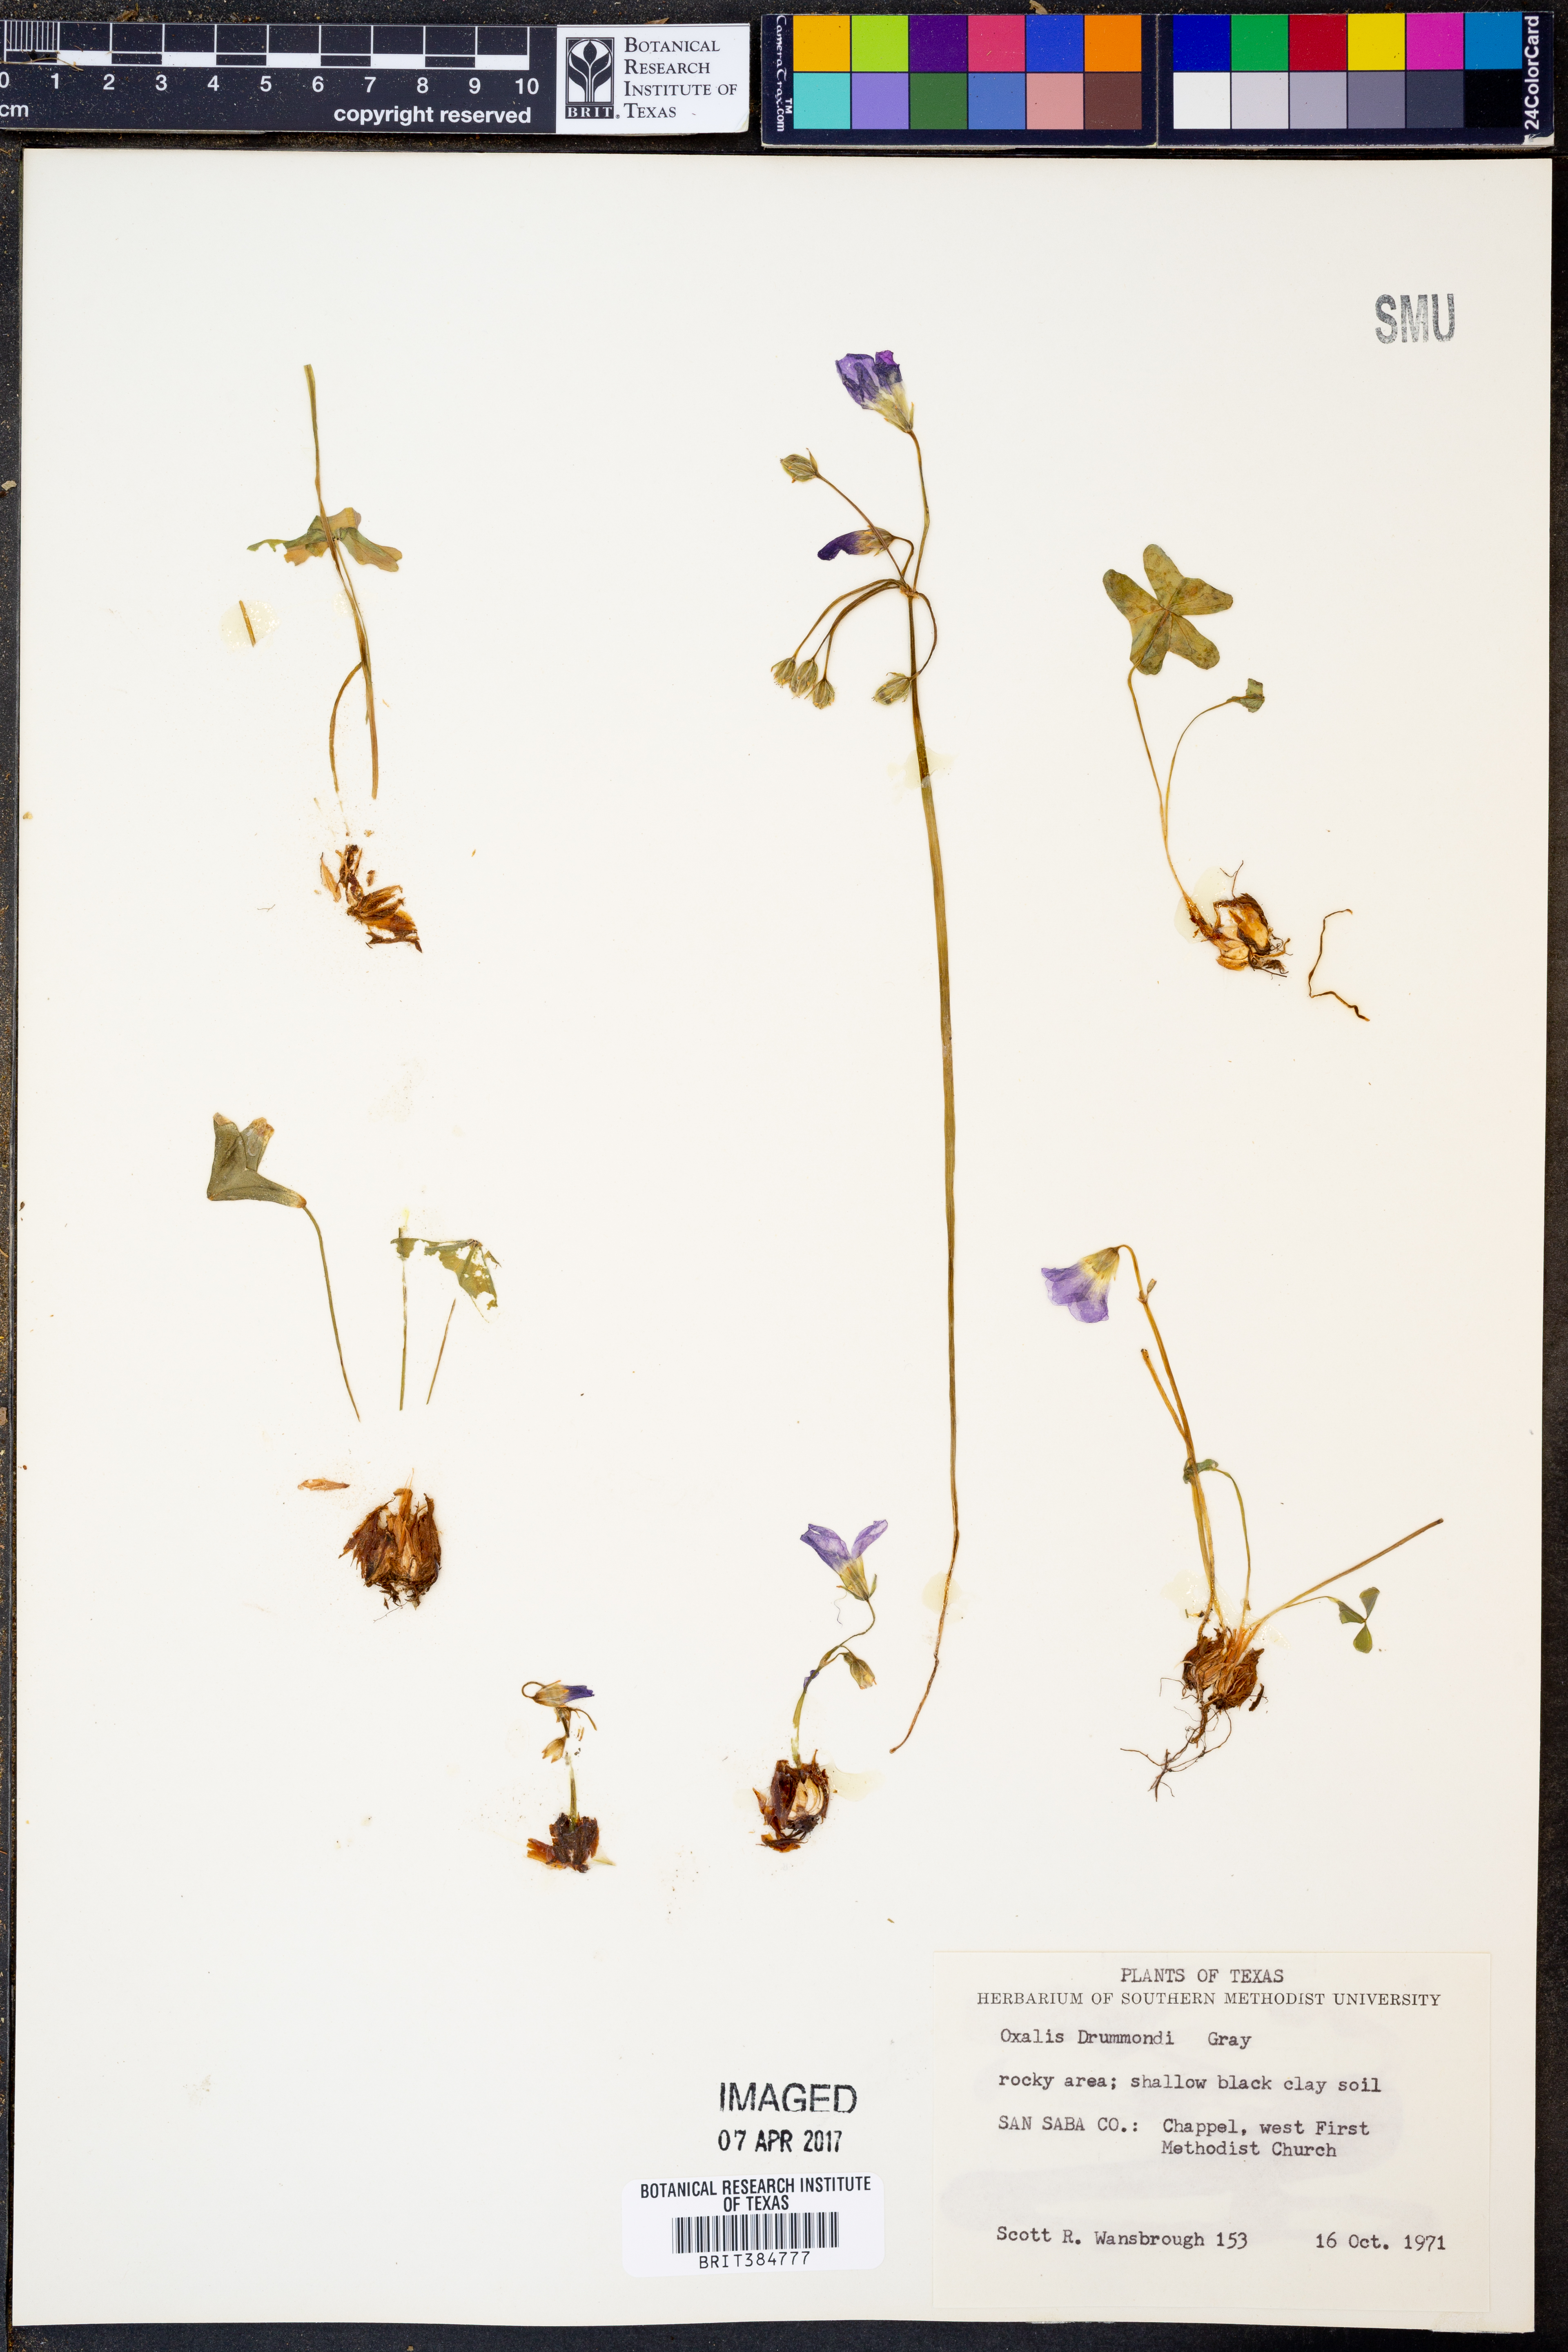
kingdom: Plantae
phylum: Tracheophyta
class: Magnoliopsida
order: Oxalidales
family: Oxalidaceae
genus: Oxalis
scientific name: Oxalis drummondii
